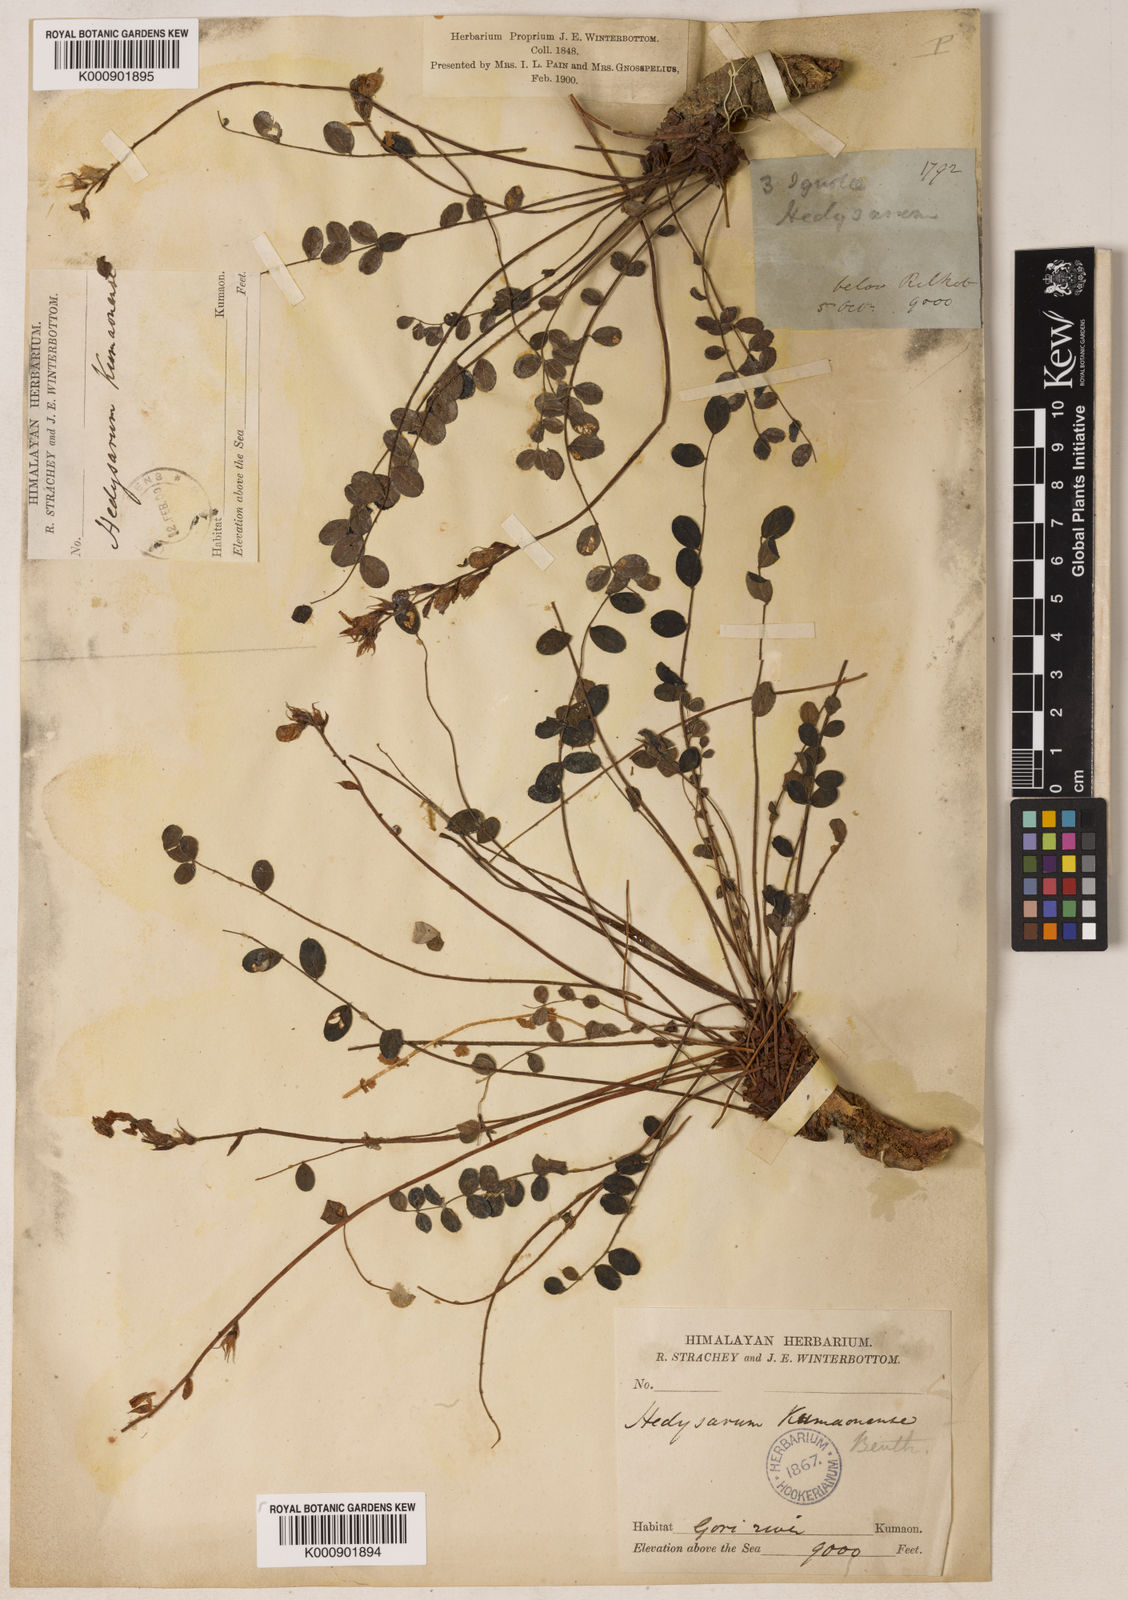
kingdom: Plantae
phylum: Tracheophyta
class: Magnoliopsida
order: Fabales
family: Fabaceae
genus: Hedysarum
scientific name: Hedysarum kumaonense
